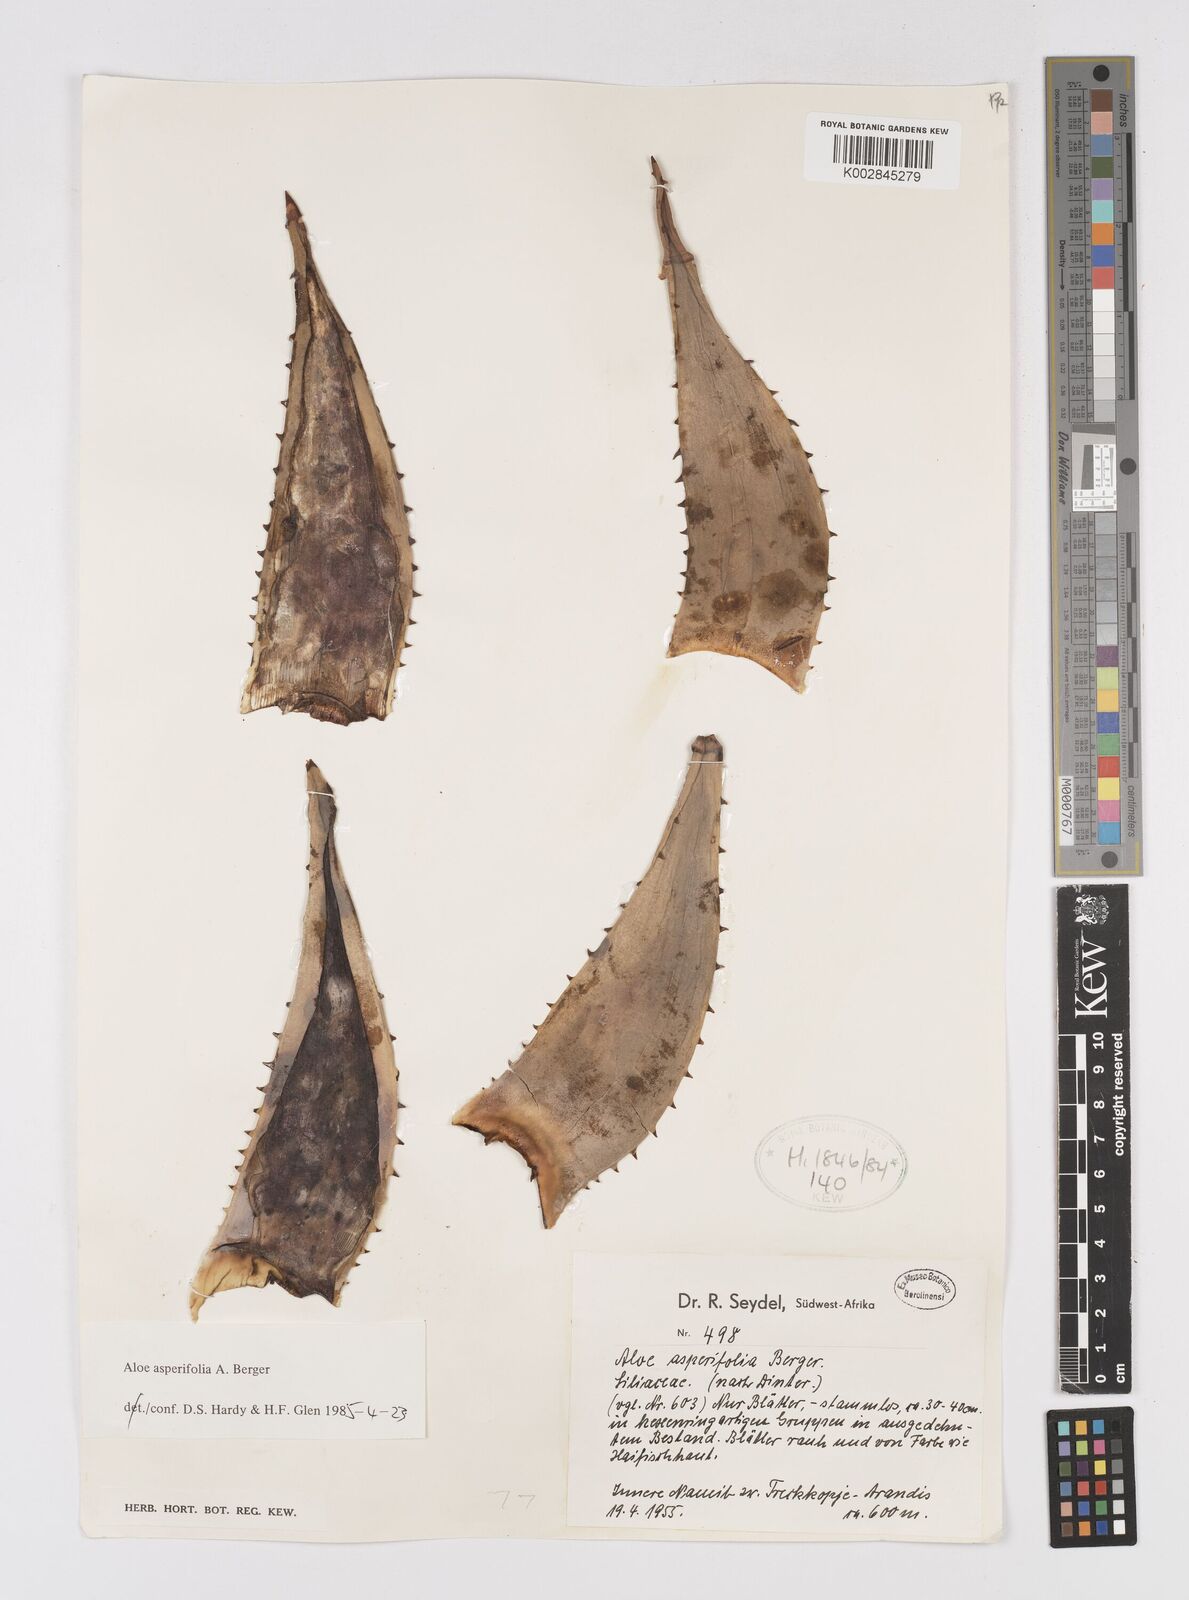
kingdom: Plantae
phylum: Tracheophyta
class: Liliopsida
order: Asparagales
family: Asphodelaceae
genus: Aloe
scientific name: Aloe asperifolia
